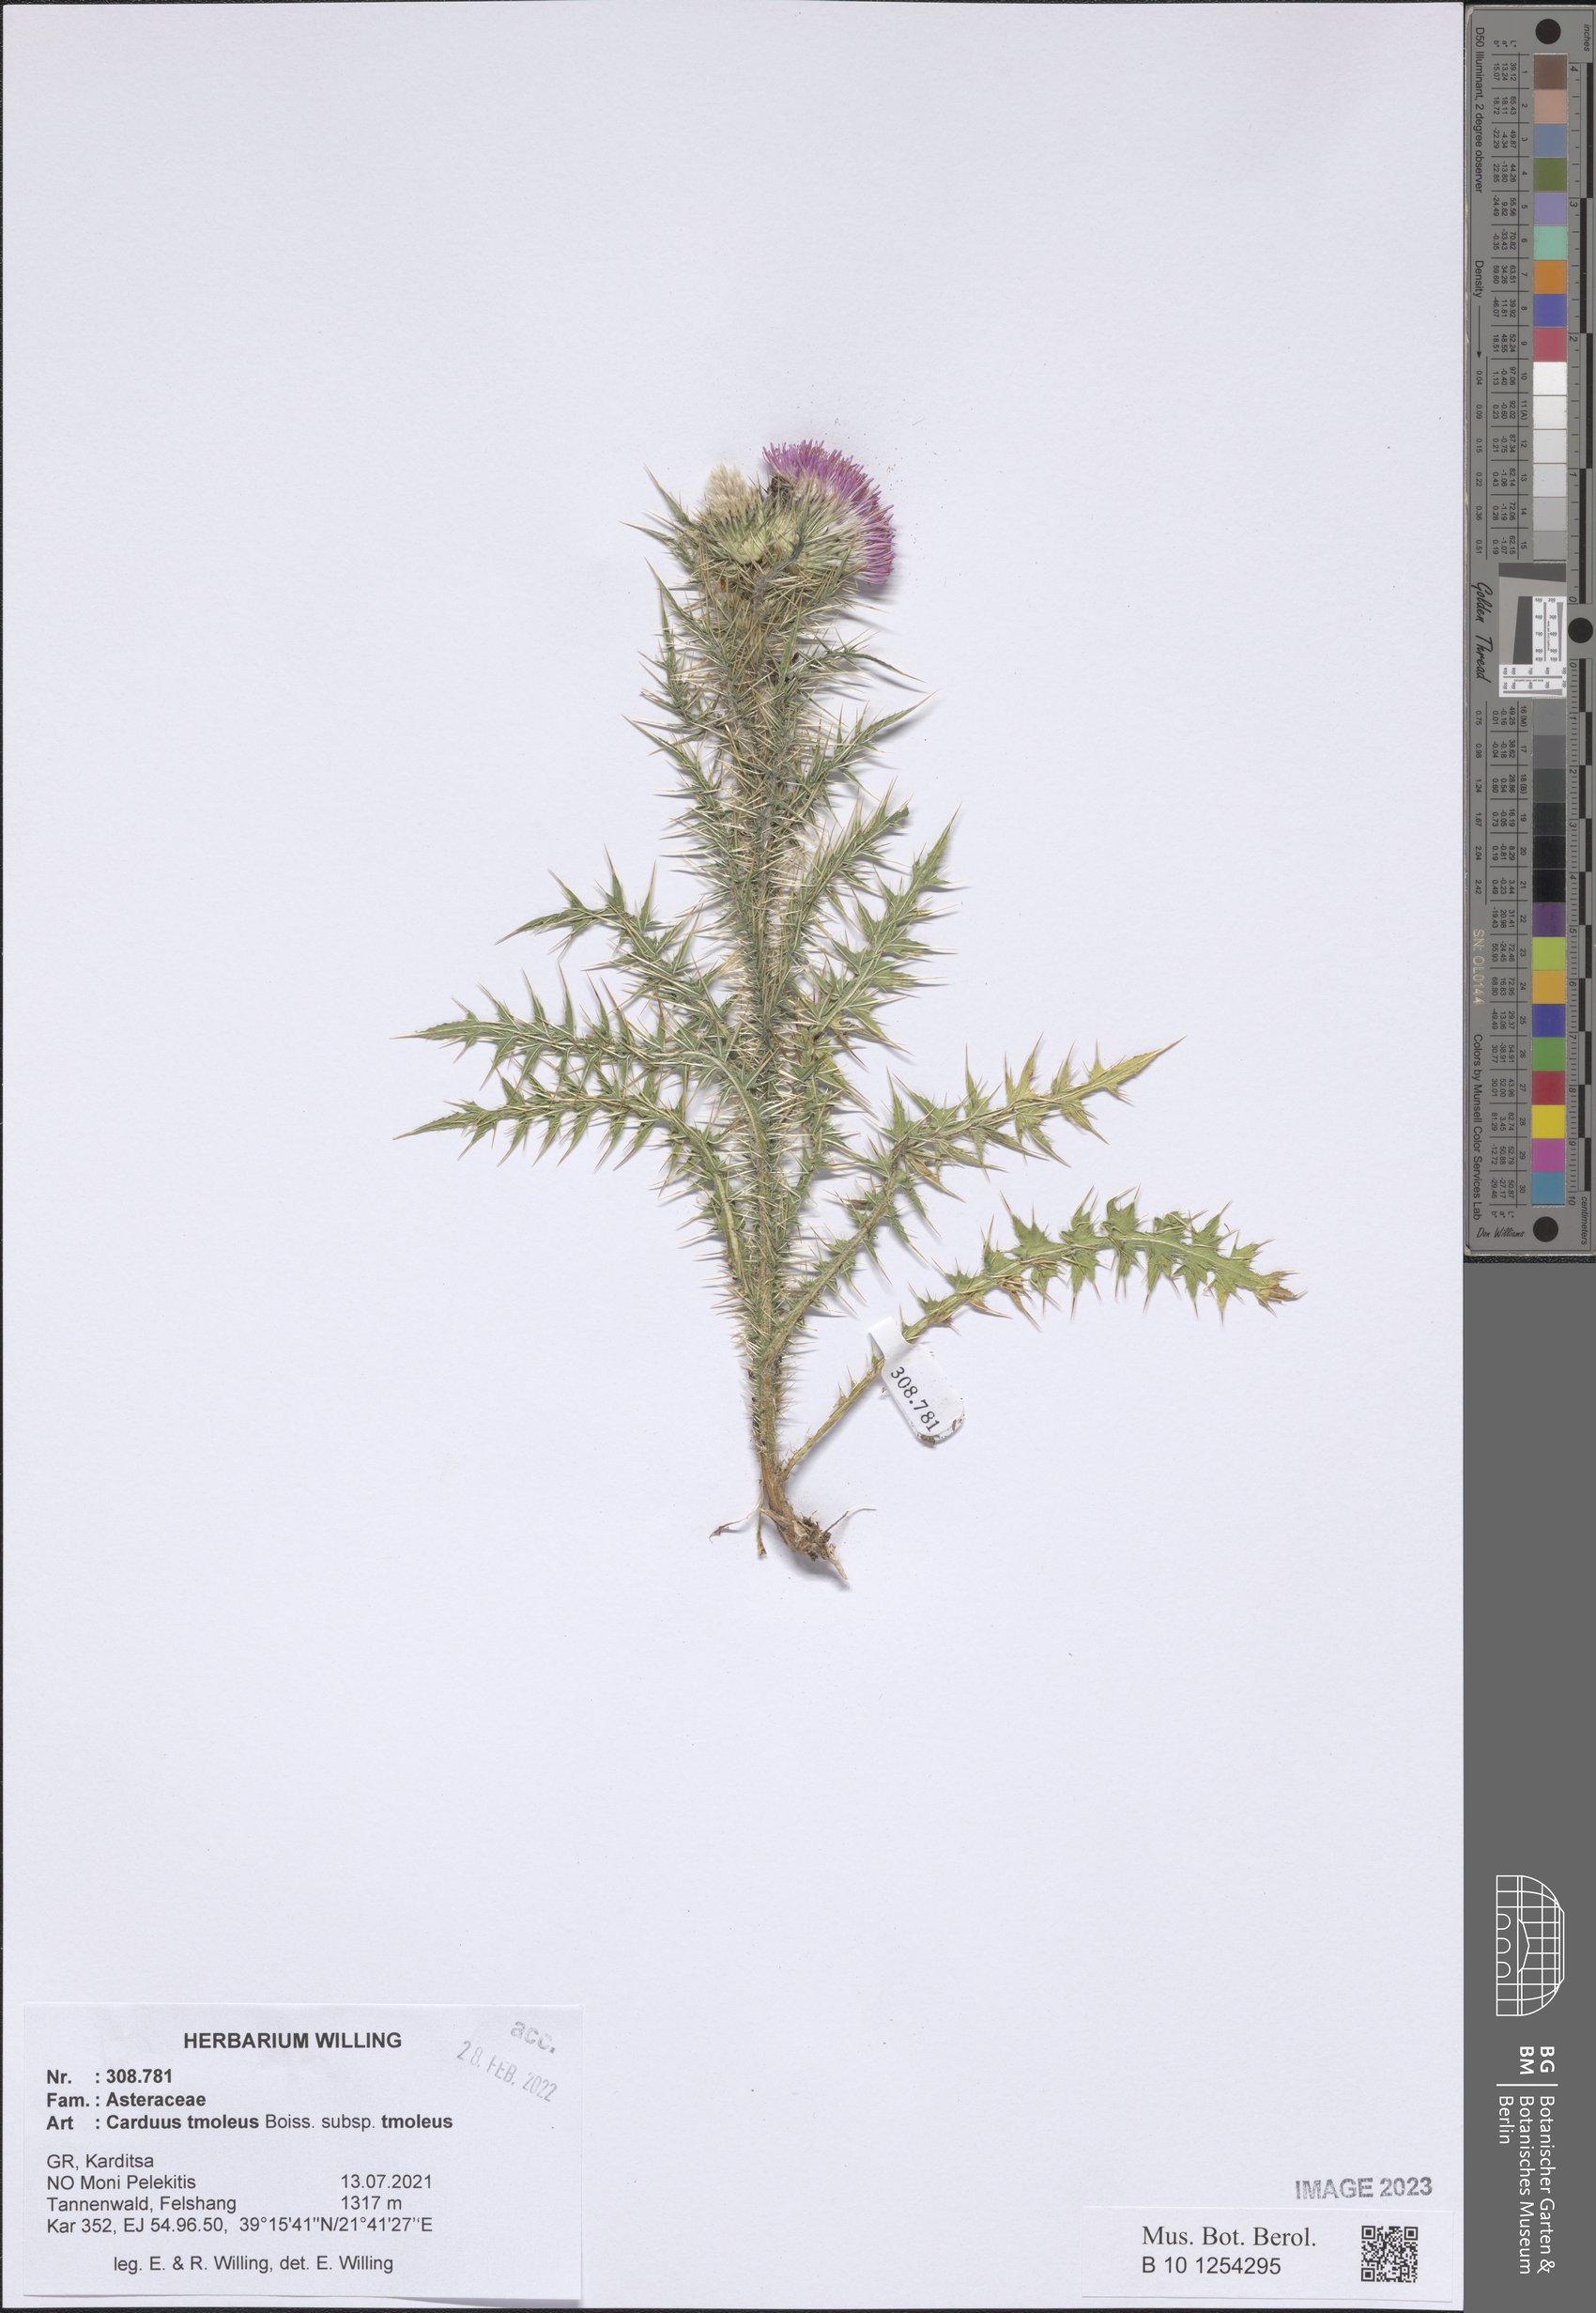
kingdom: Plantae
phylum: Tracheophyta
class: Magnoliopsida
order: Asterales
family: Asteraceae
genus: Carduus
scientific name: Carduus tmoleus
